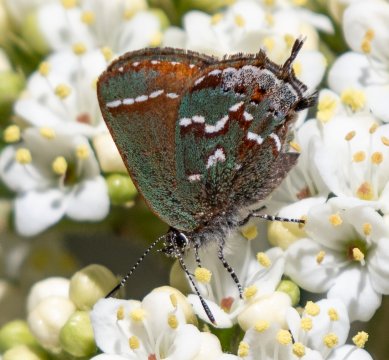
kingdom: Animalia
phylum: Arthropoda
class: Insecta
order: Lepidoptera
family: Lycaenidae
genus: Mitoura
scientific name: Mitoura gryneus
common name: Juniper Hairstreak
